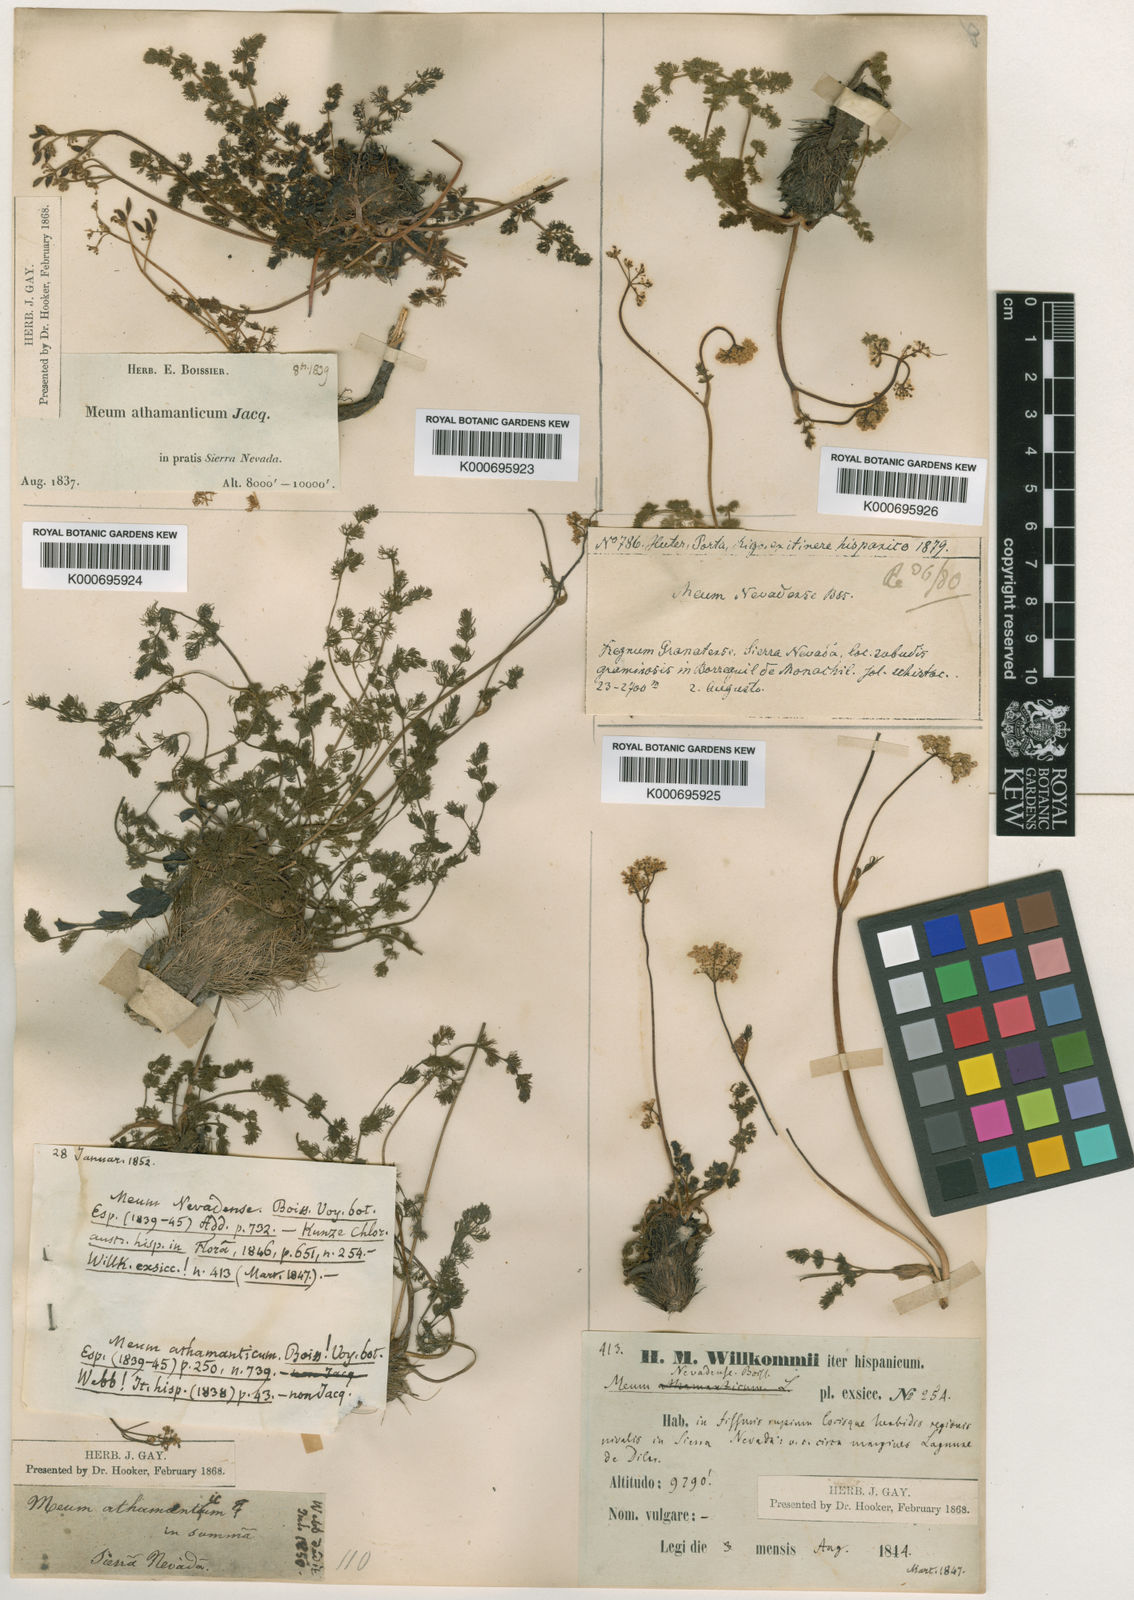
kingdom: Plantae
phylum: Tracheophyta
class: Magnoliopsida
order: Apiales
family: Apiaceae
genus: Meum
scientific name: Meum athamanticum
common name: Spignel
